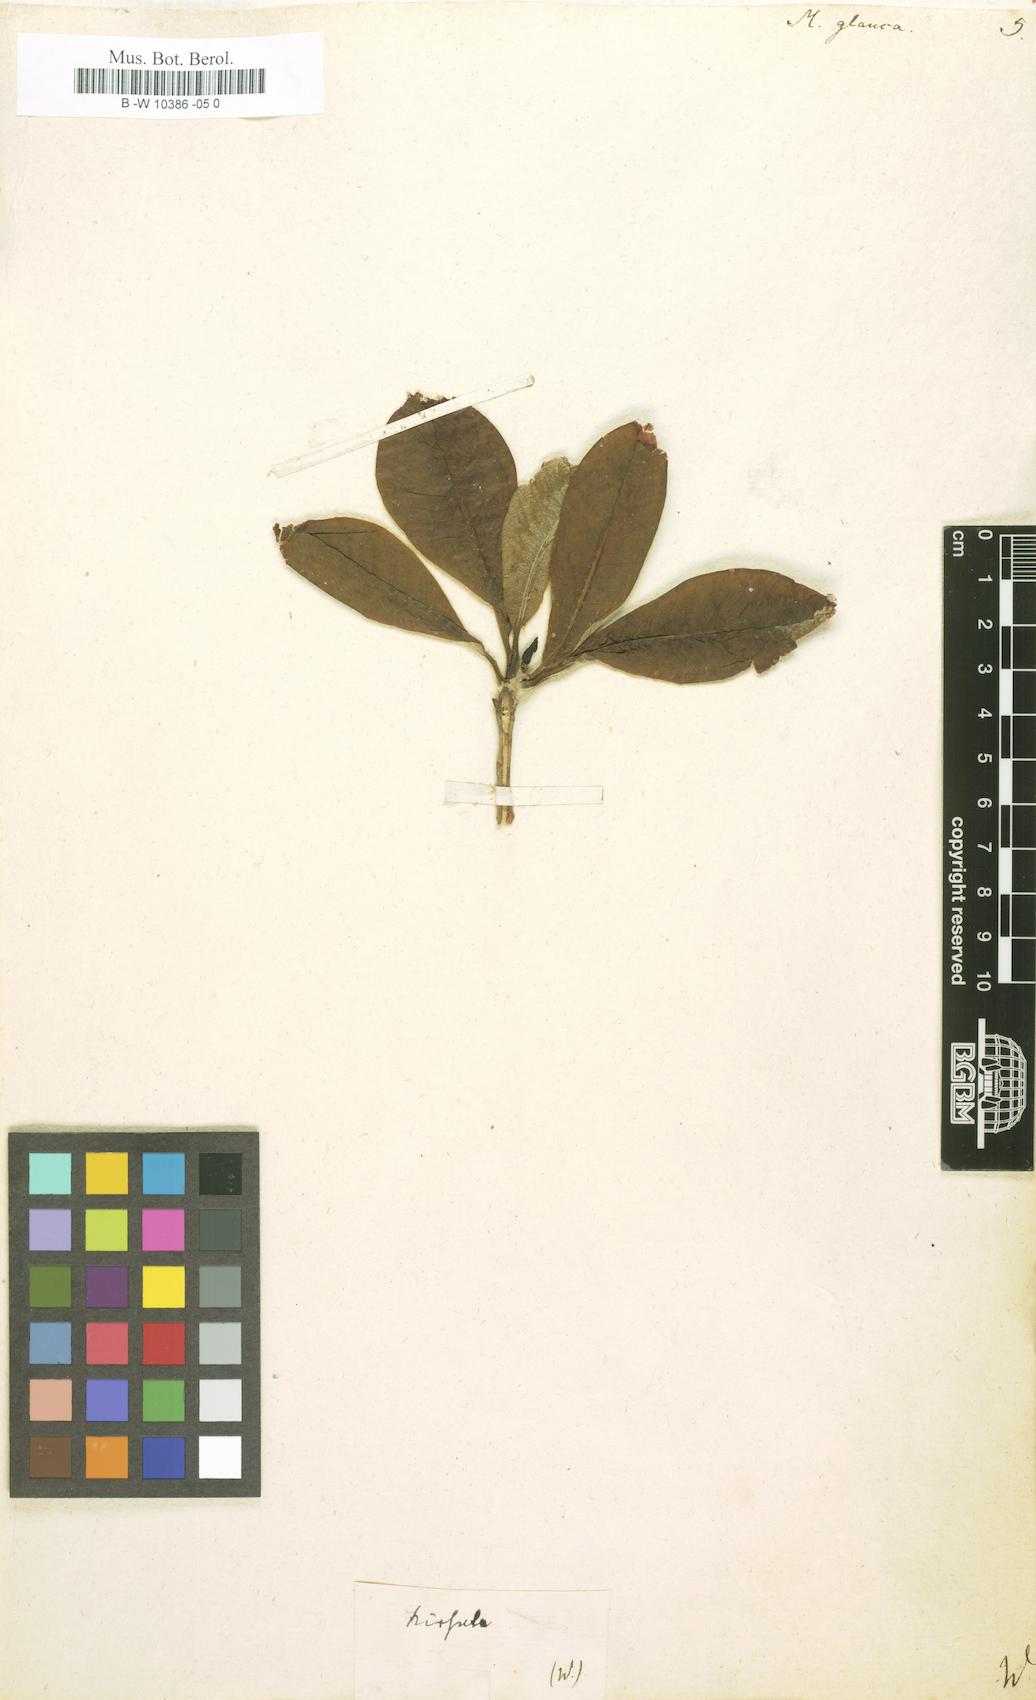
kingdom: Plantae
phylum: Tracheophyta
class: Magnoliopsida
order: Magnoliales
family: Magnoliaceae
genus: Magnolia
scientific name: Magnolia
